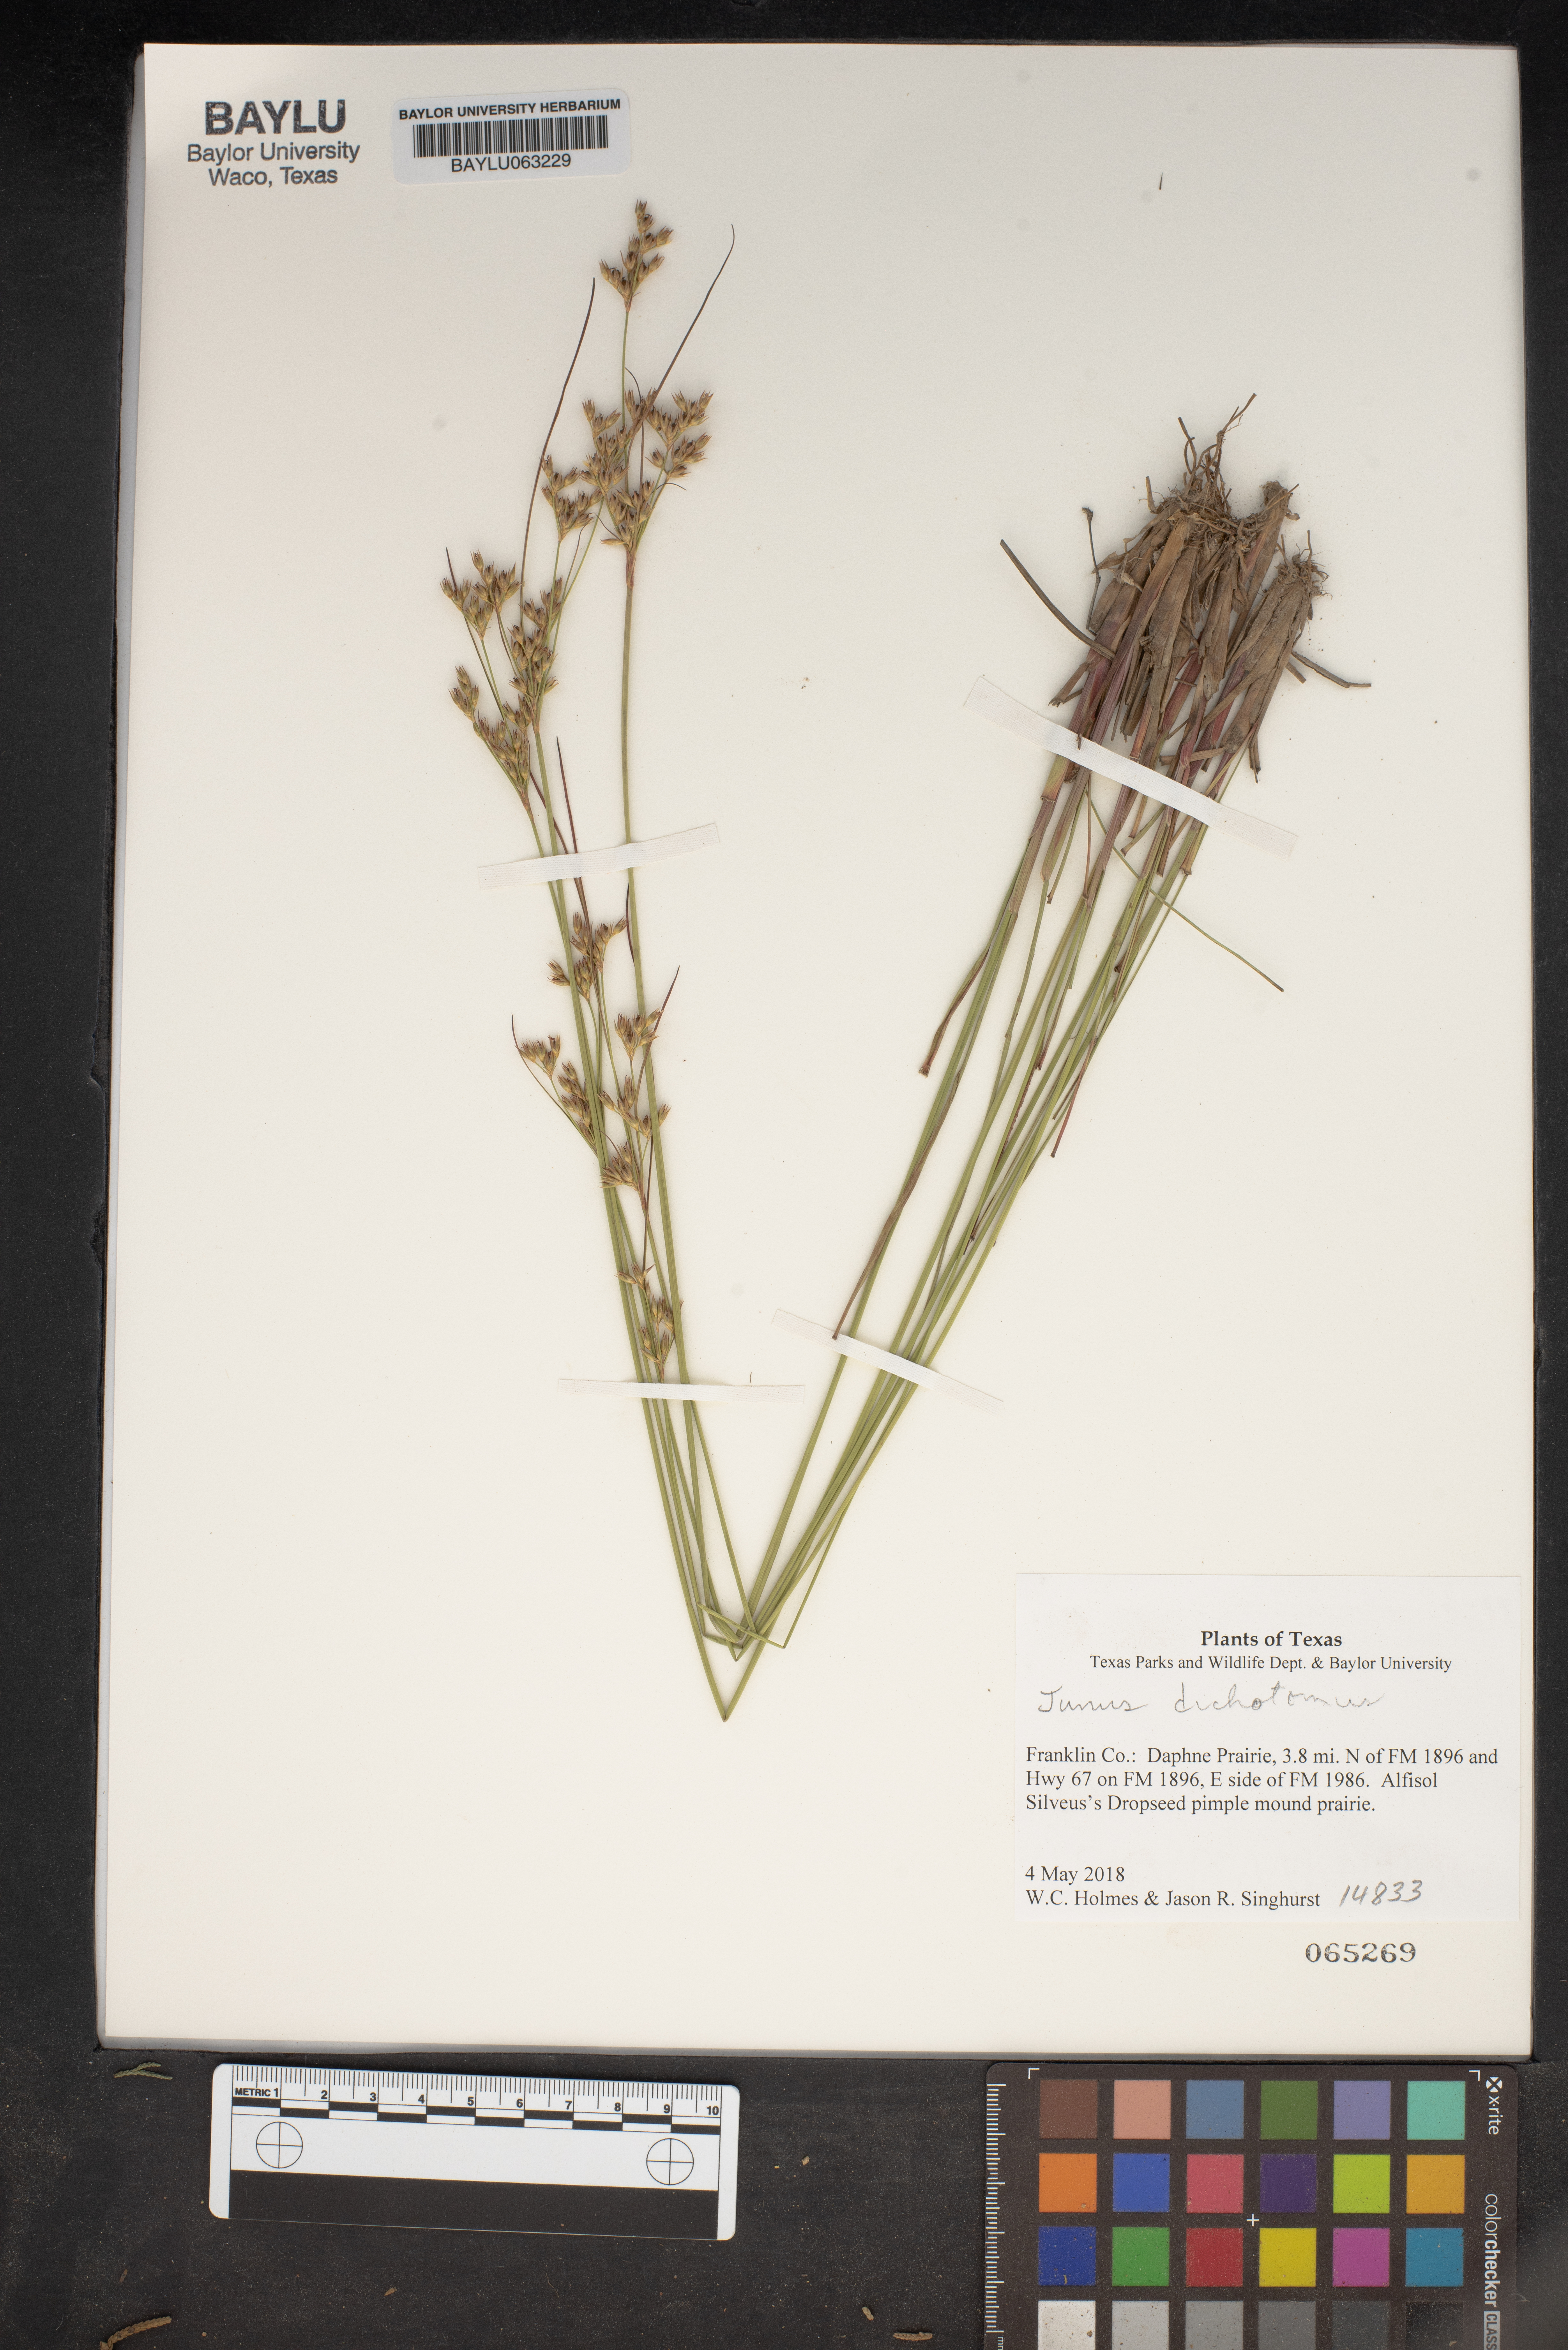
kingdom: Plantae
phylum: Tracheophyta
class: Liliopsida
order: Poales
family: Juncaceae
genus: Juncus
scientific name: Juncus dichotomus
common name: Forked rush
